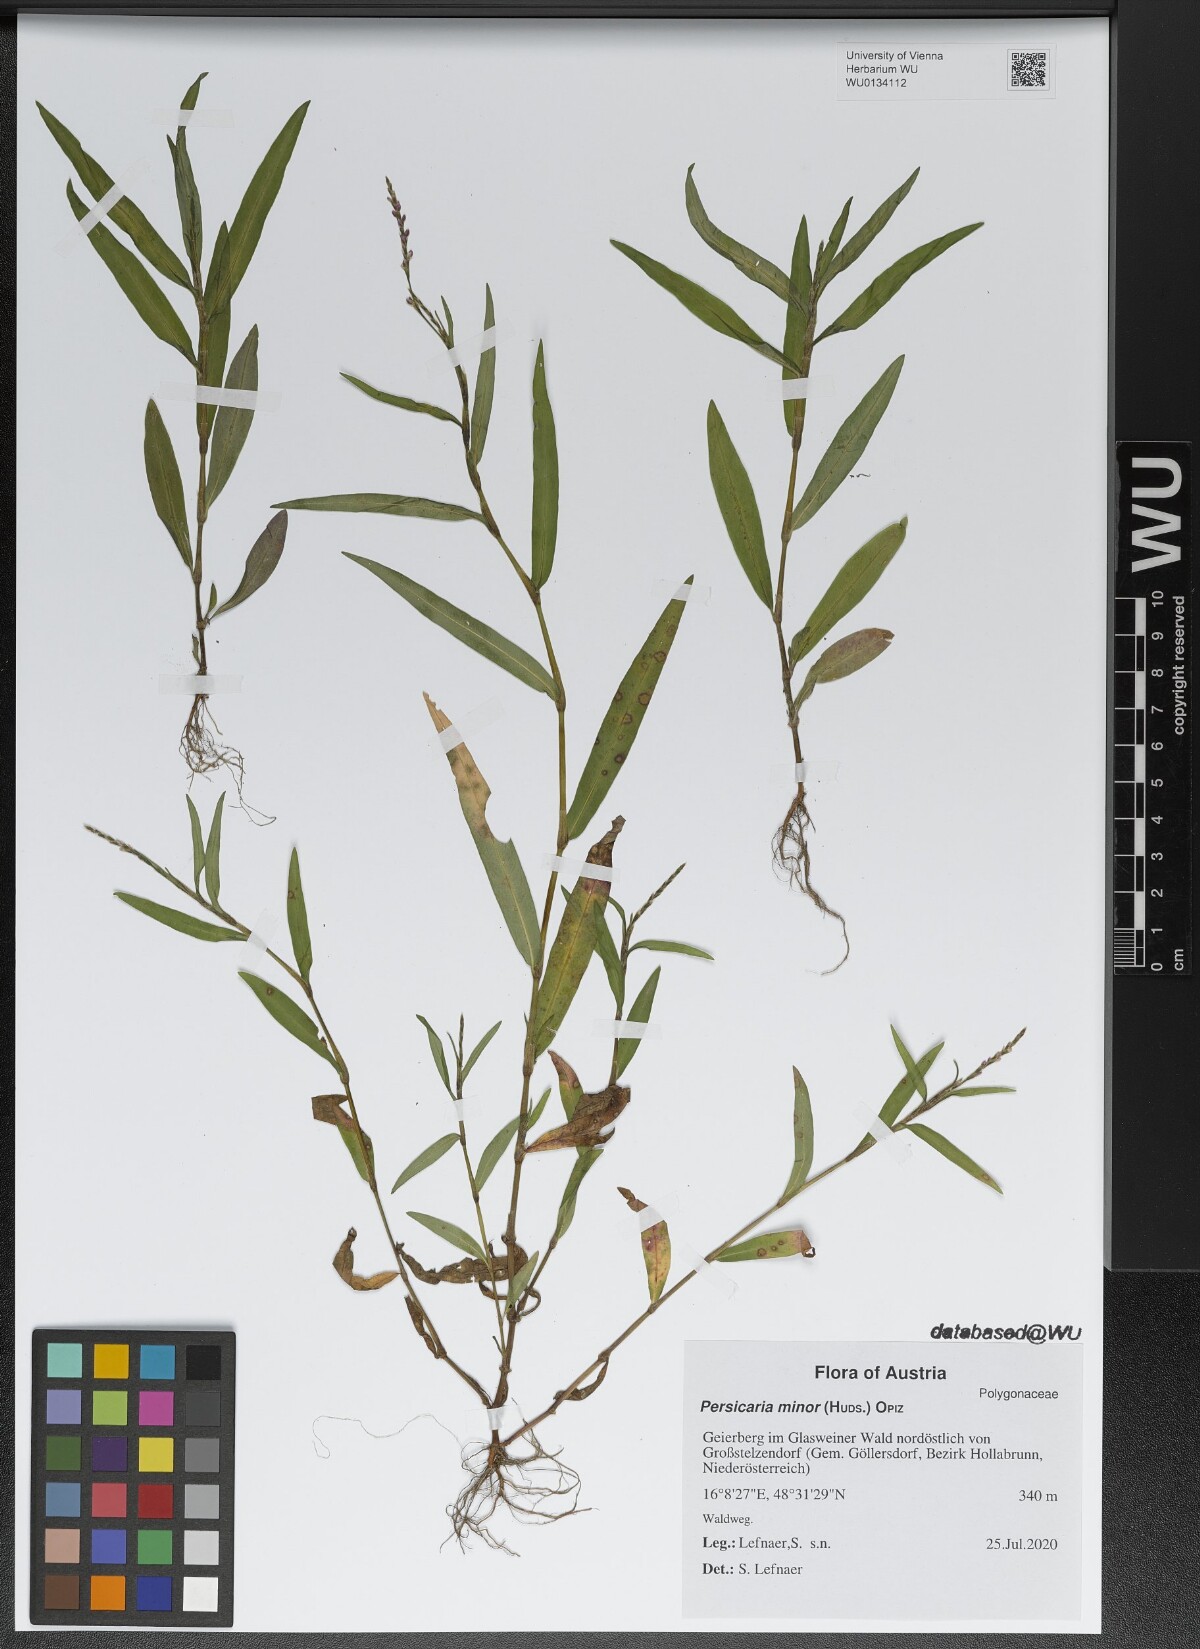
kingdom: Plantae
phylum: Tracheophyta
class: Magnoliopsida
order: Caryophyllales
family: Polygonaceae
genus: Persicaria
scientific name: Persicaria minor
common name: Small water-pepper
